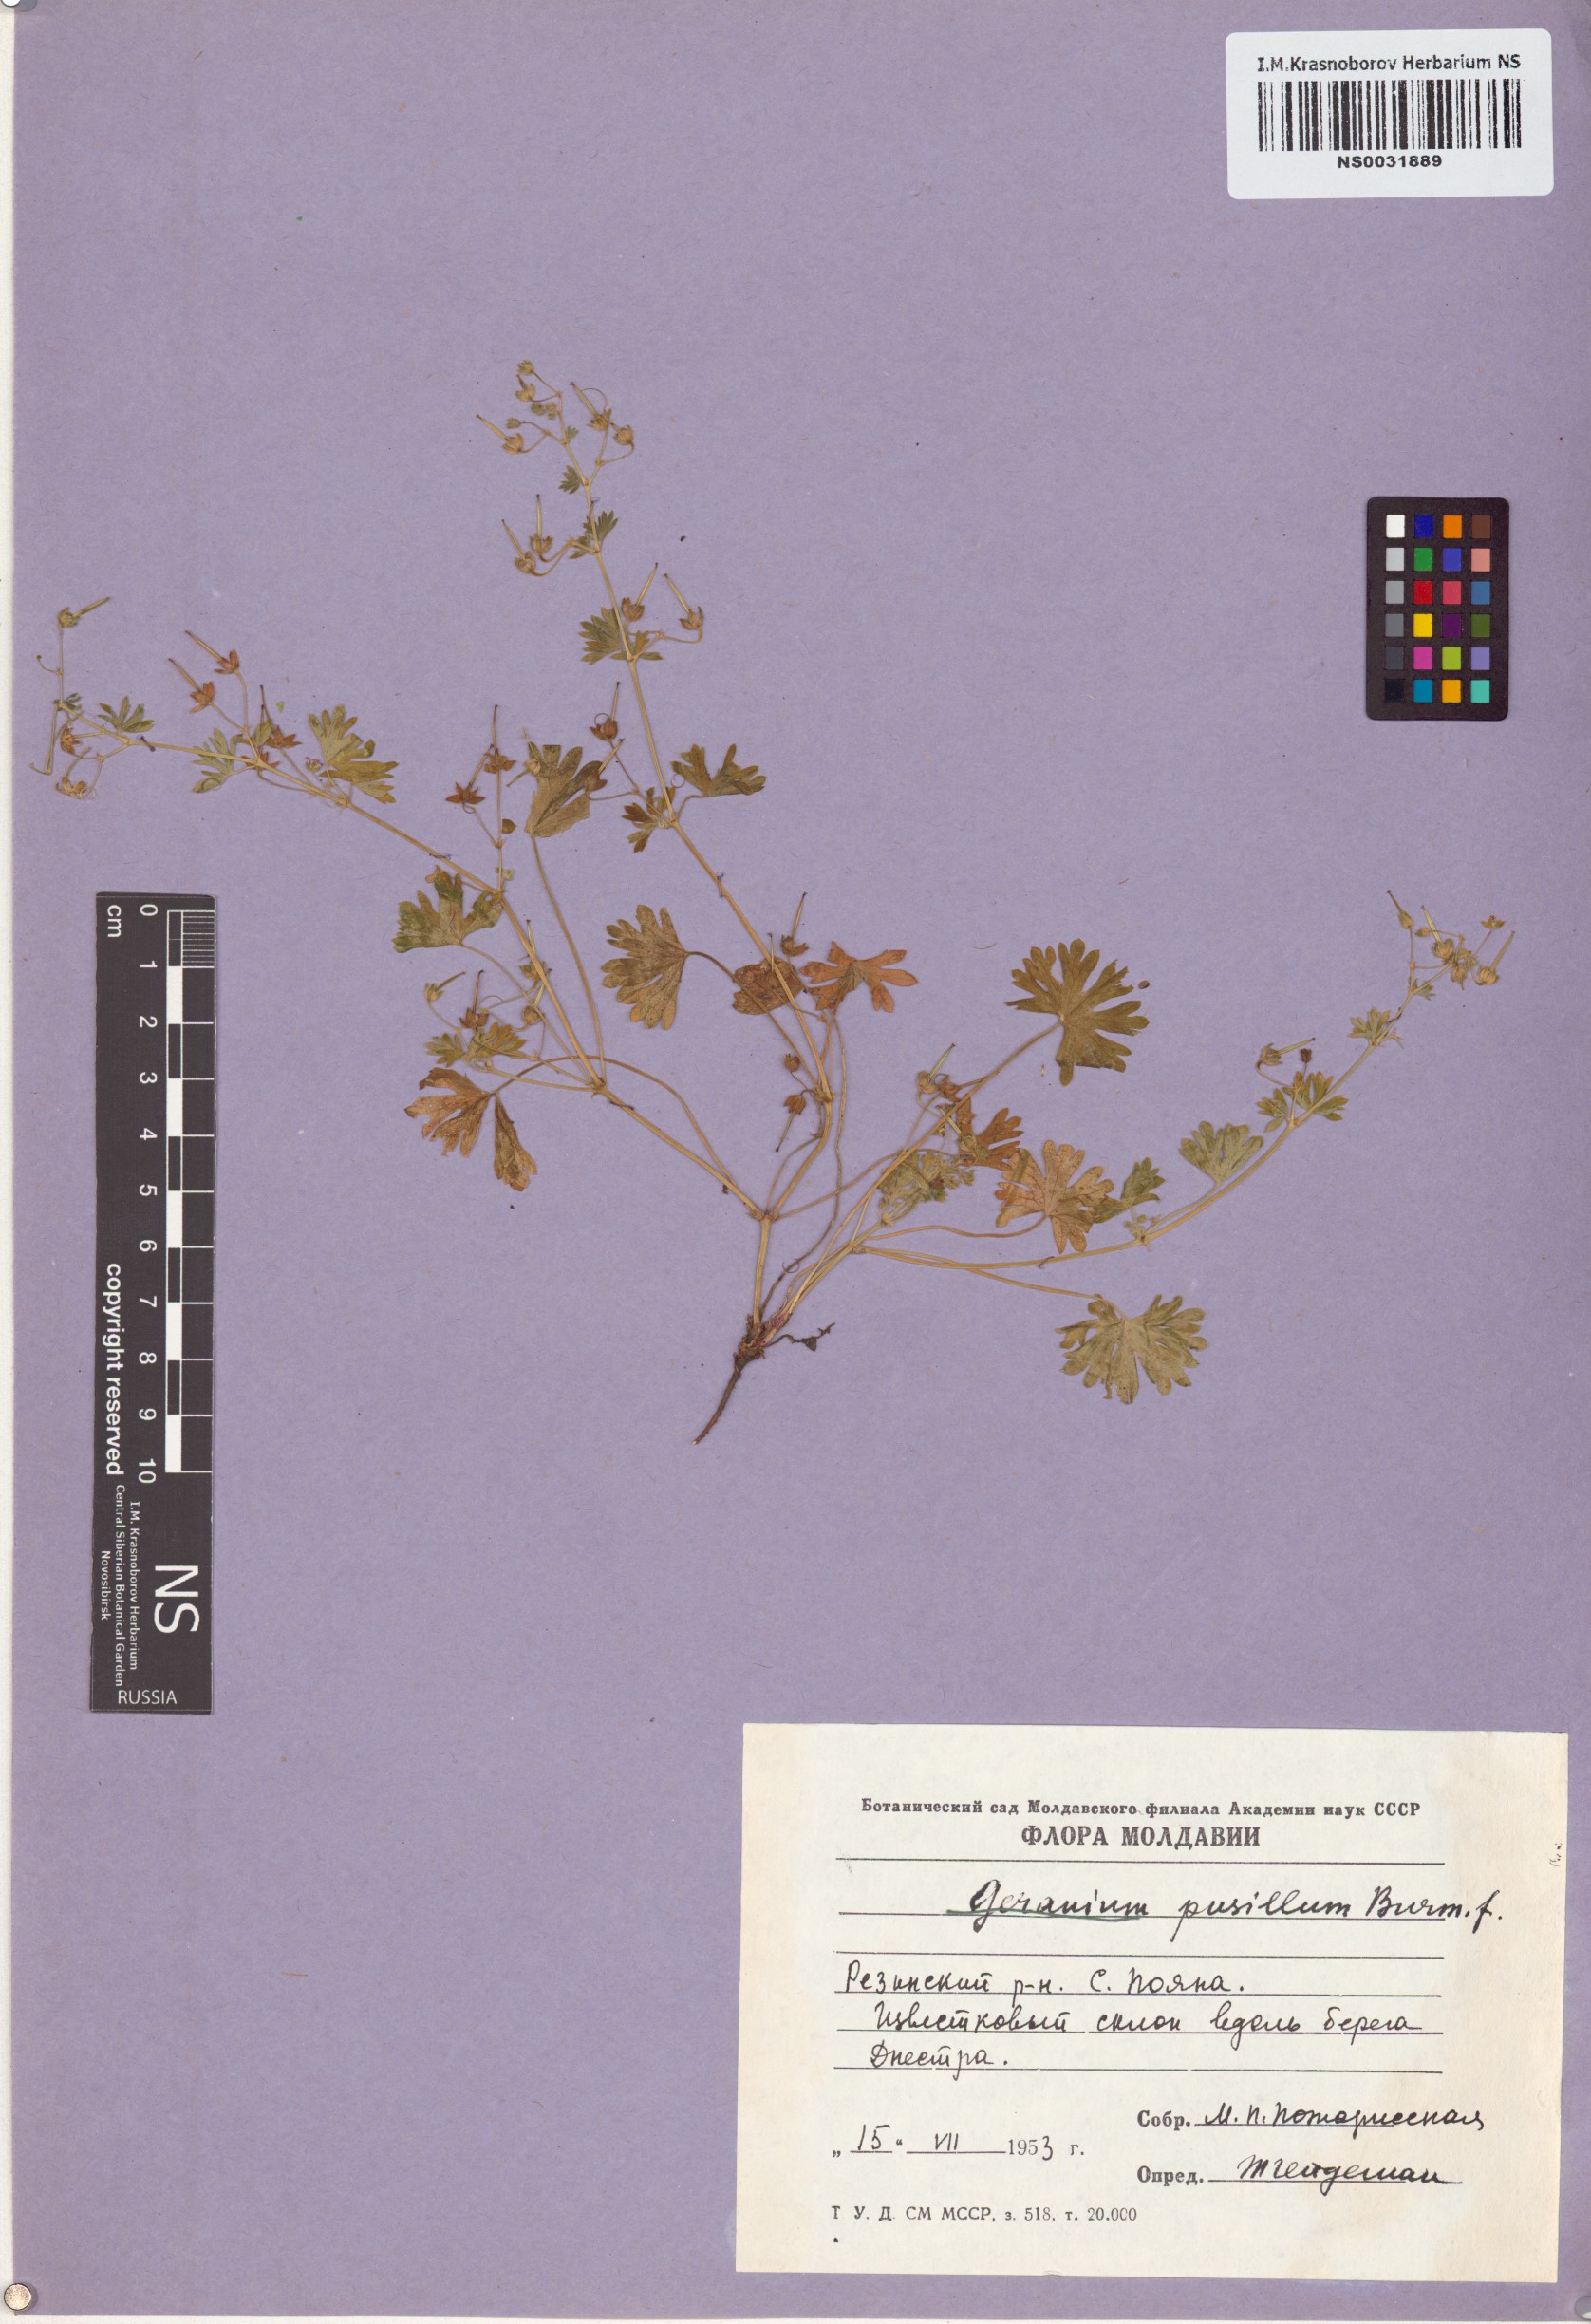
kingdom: Plantae
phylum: Tracheophyta
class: Magnoliopsida
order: Geraniales
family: Geraniaceae
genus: Geranium
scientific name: Geranium pusillum
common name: Small geranium
